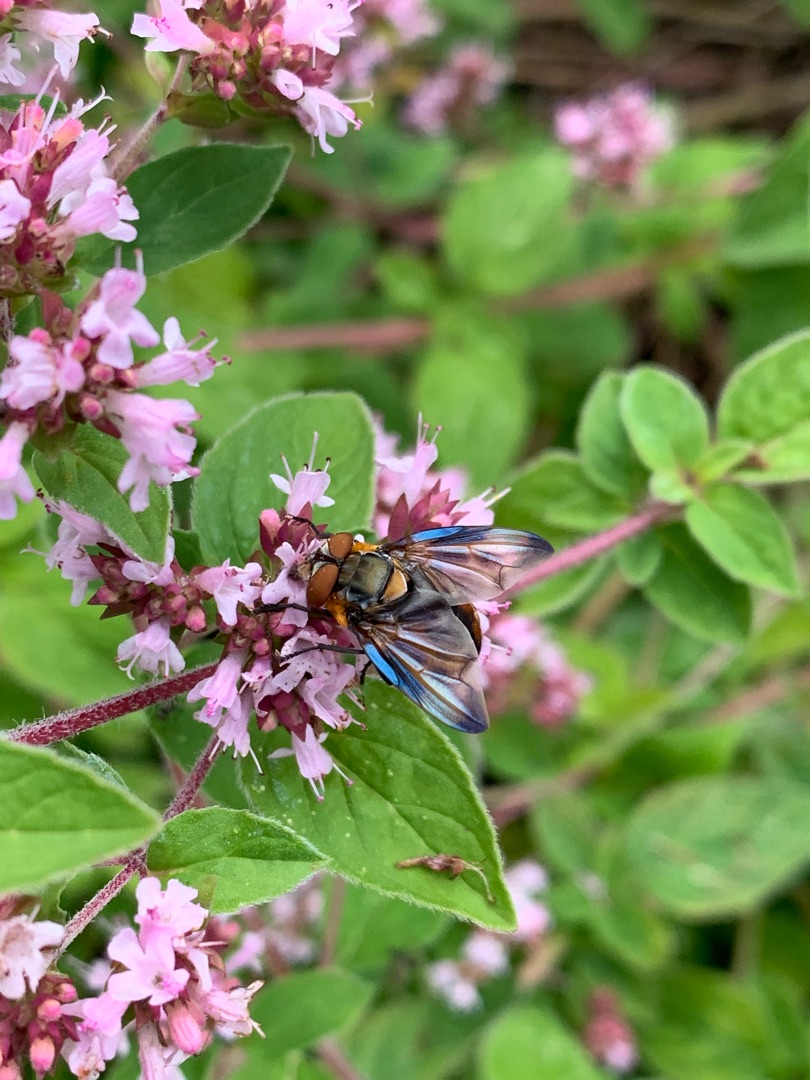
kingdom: Animalia
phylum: Arthropoda
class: Insecta
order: Diptera
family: Tachinidae
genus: Phasia
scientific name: Phasia hemiptera
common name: Blåvinget pragtsnylteflue
